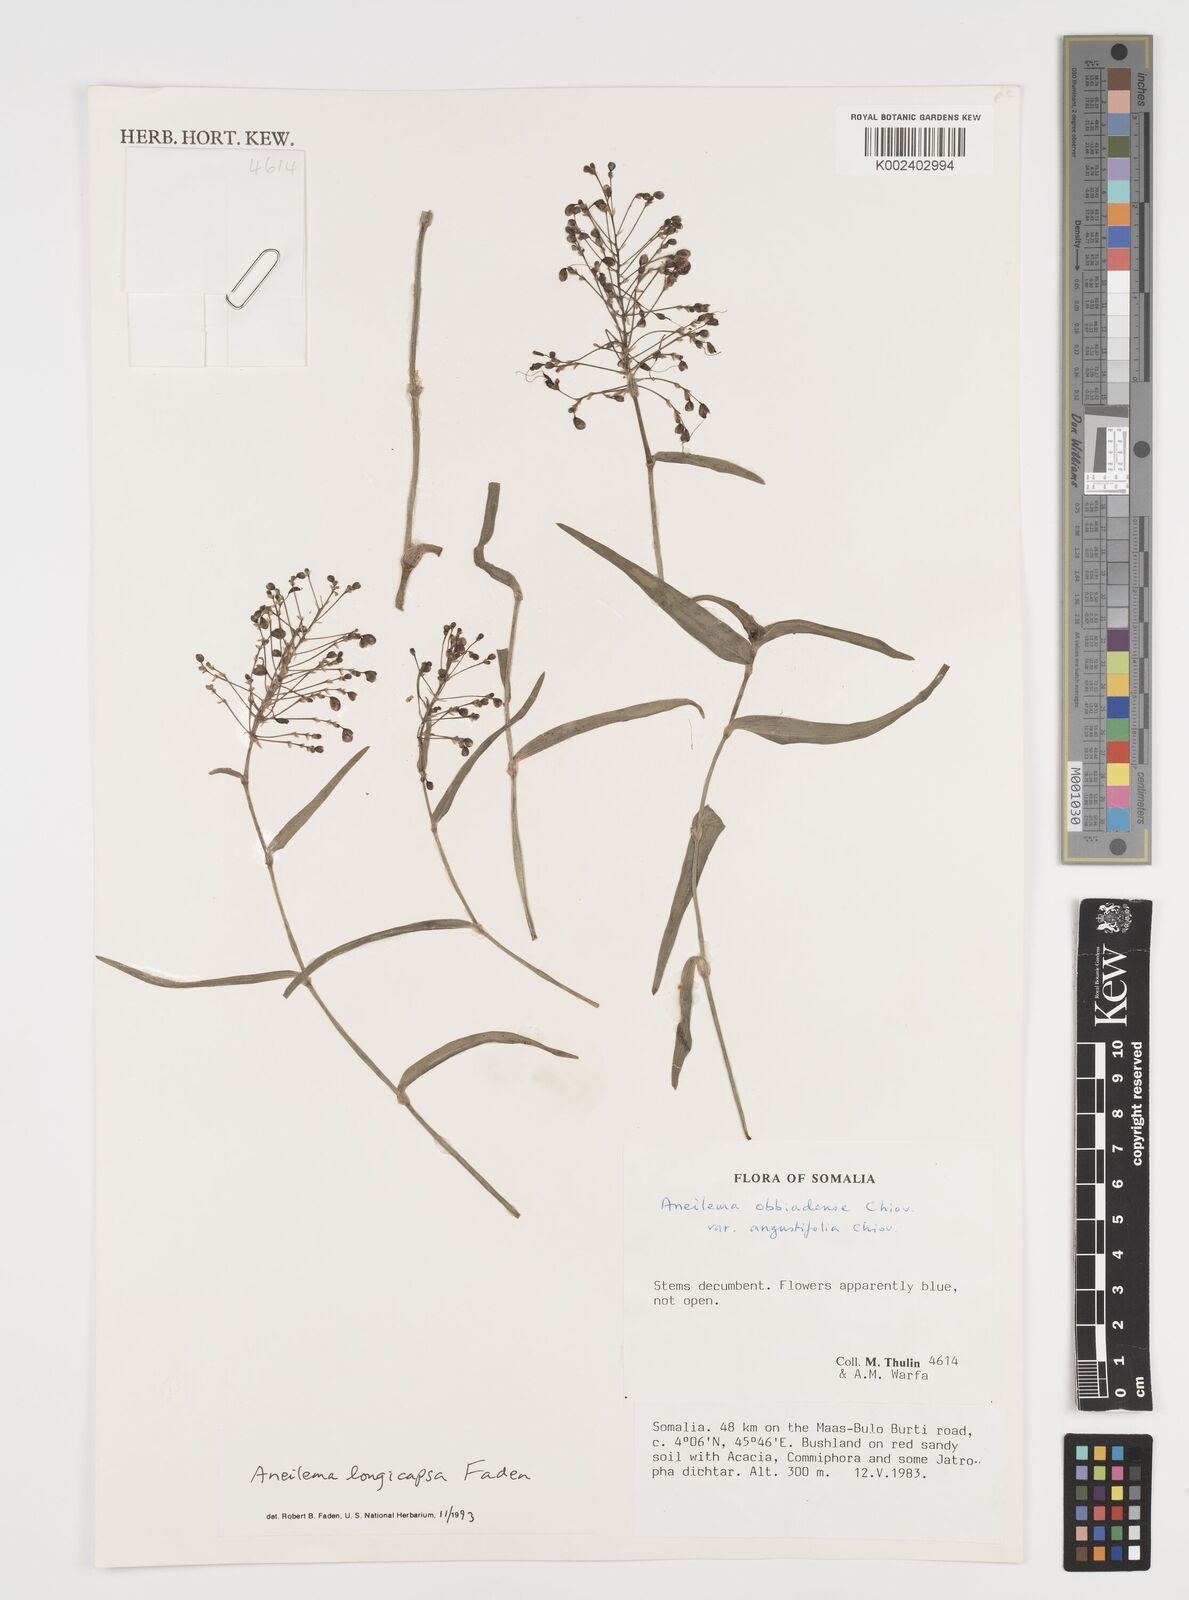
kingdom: Plantae
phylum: Tracheophyta
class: Liliopsida
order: Commelinales
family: Commelinaceae
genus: Aneilema
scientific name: Aneilema longicapsa
